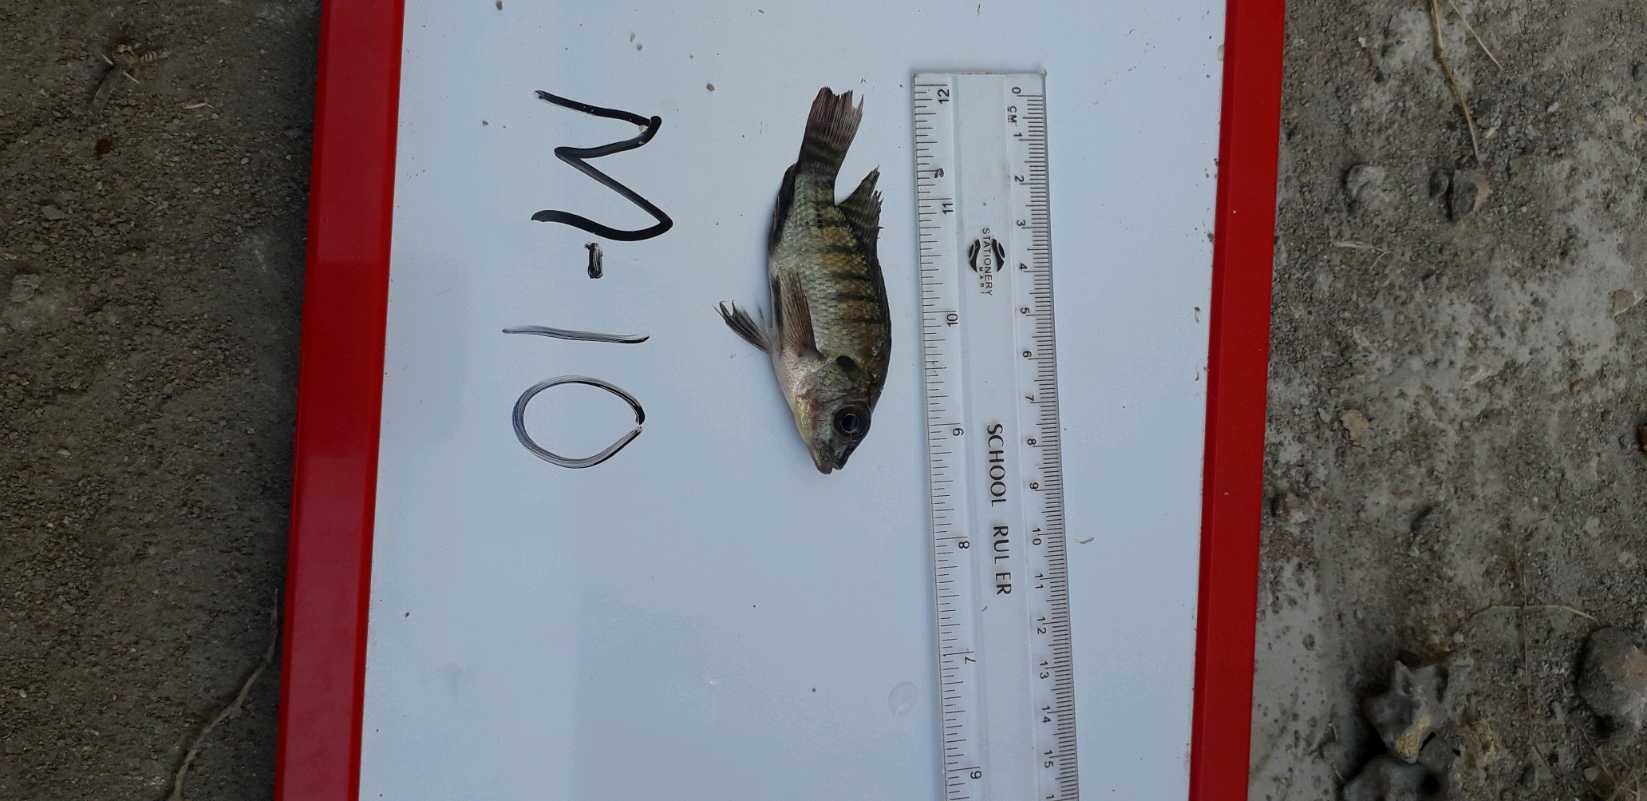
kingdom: Animalia
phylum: Chordata
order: Perciformes
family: Cichlidae
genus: Oreochromis
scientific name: Oreochromis niloticus
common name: Nile tilapia
